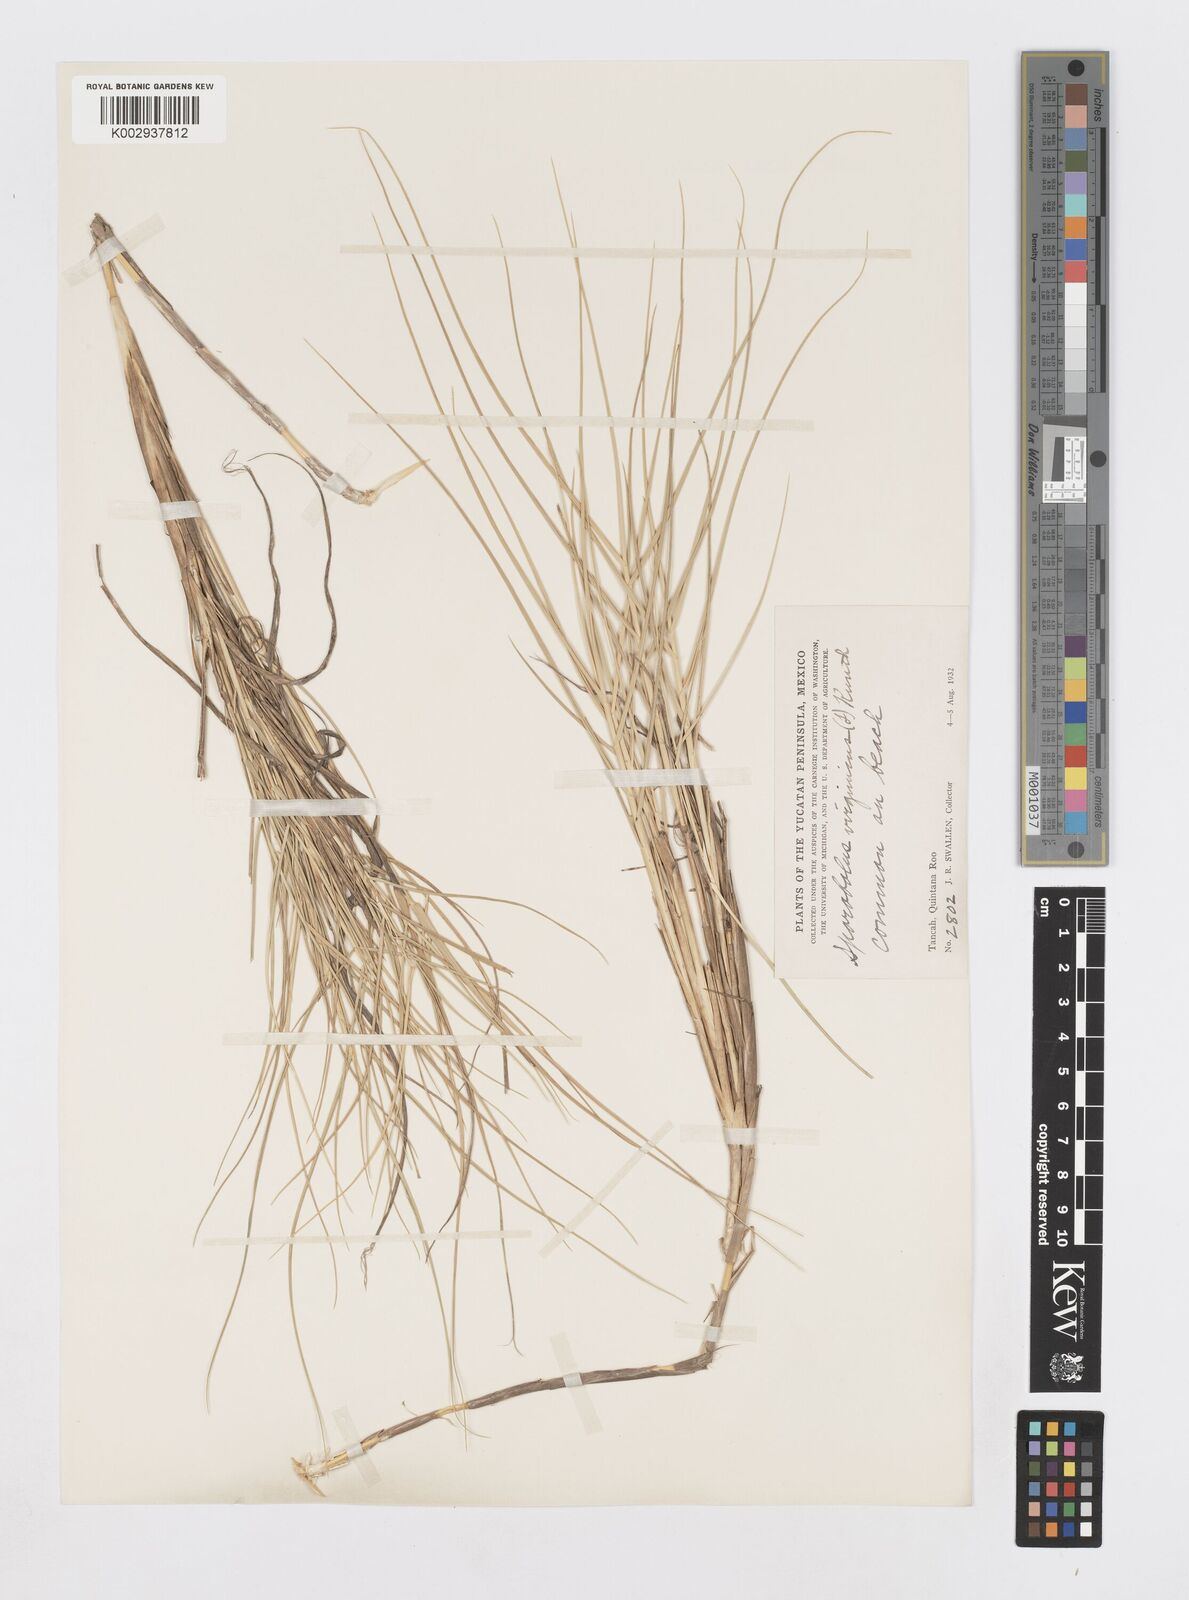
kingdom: Plantae
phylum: Tracheophyta
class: Liliopsida
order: Poales
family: Poaceae
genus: Sporobolus
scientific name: Sporobolus virginicus
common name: Beach dropseed
